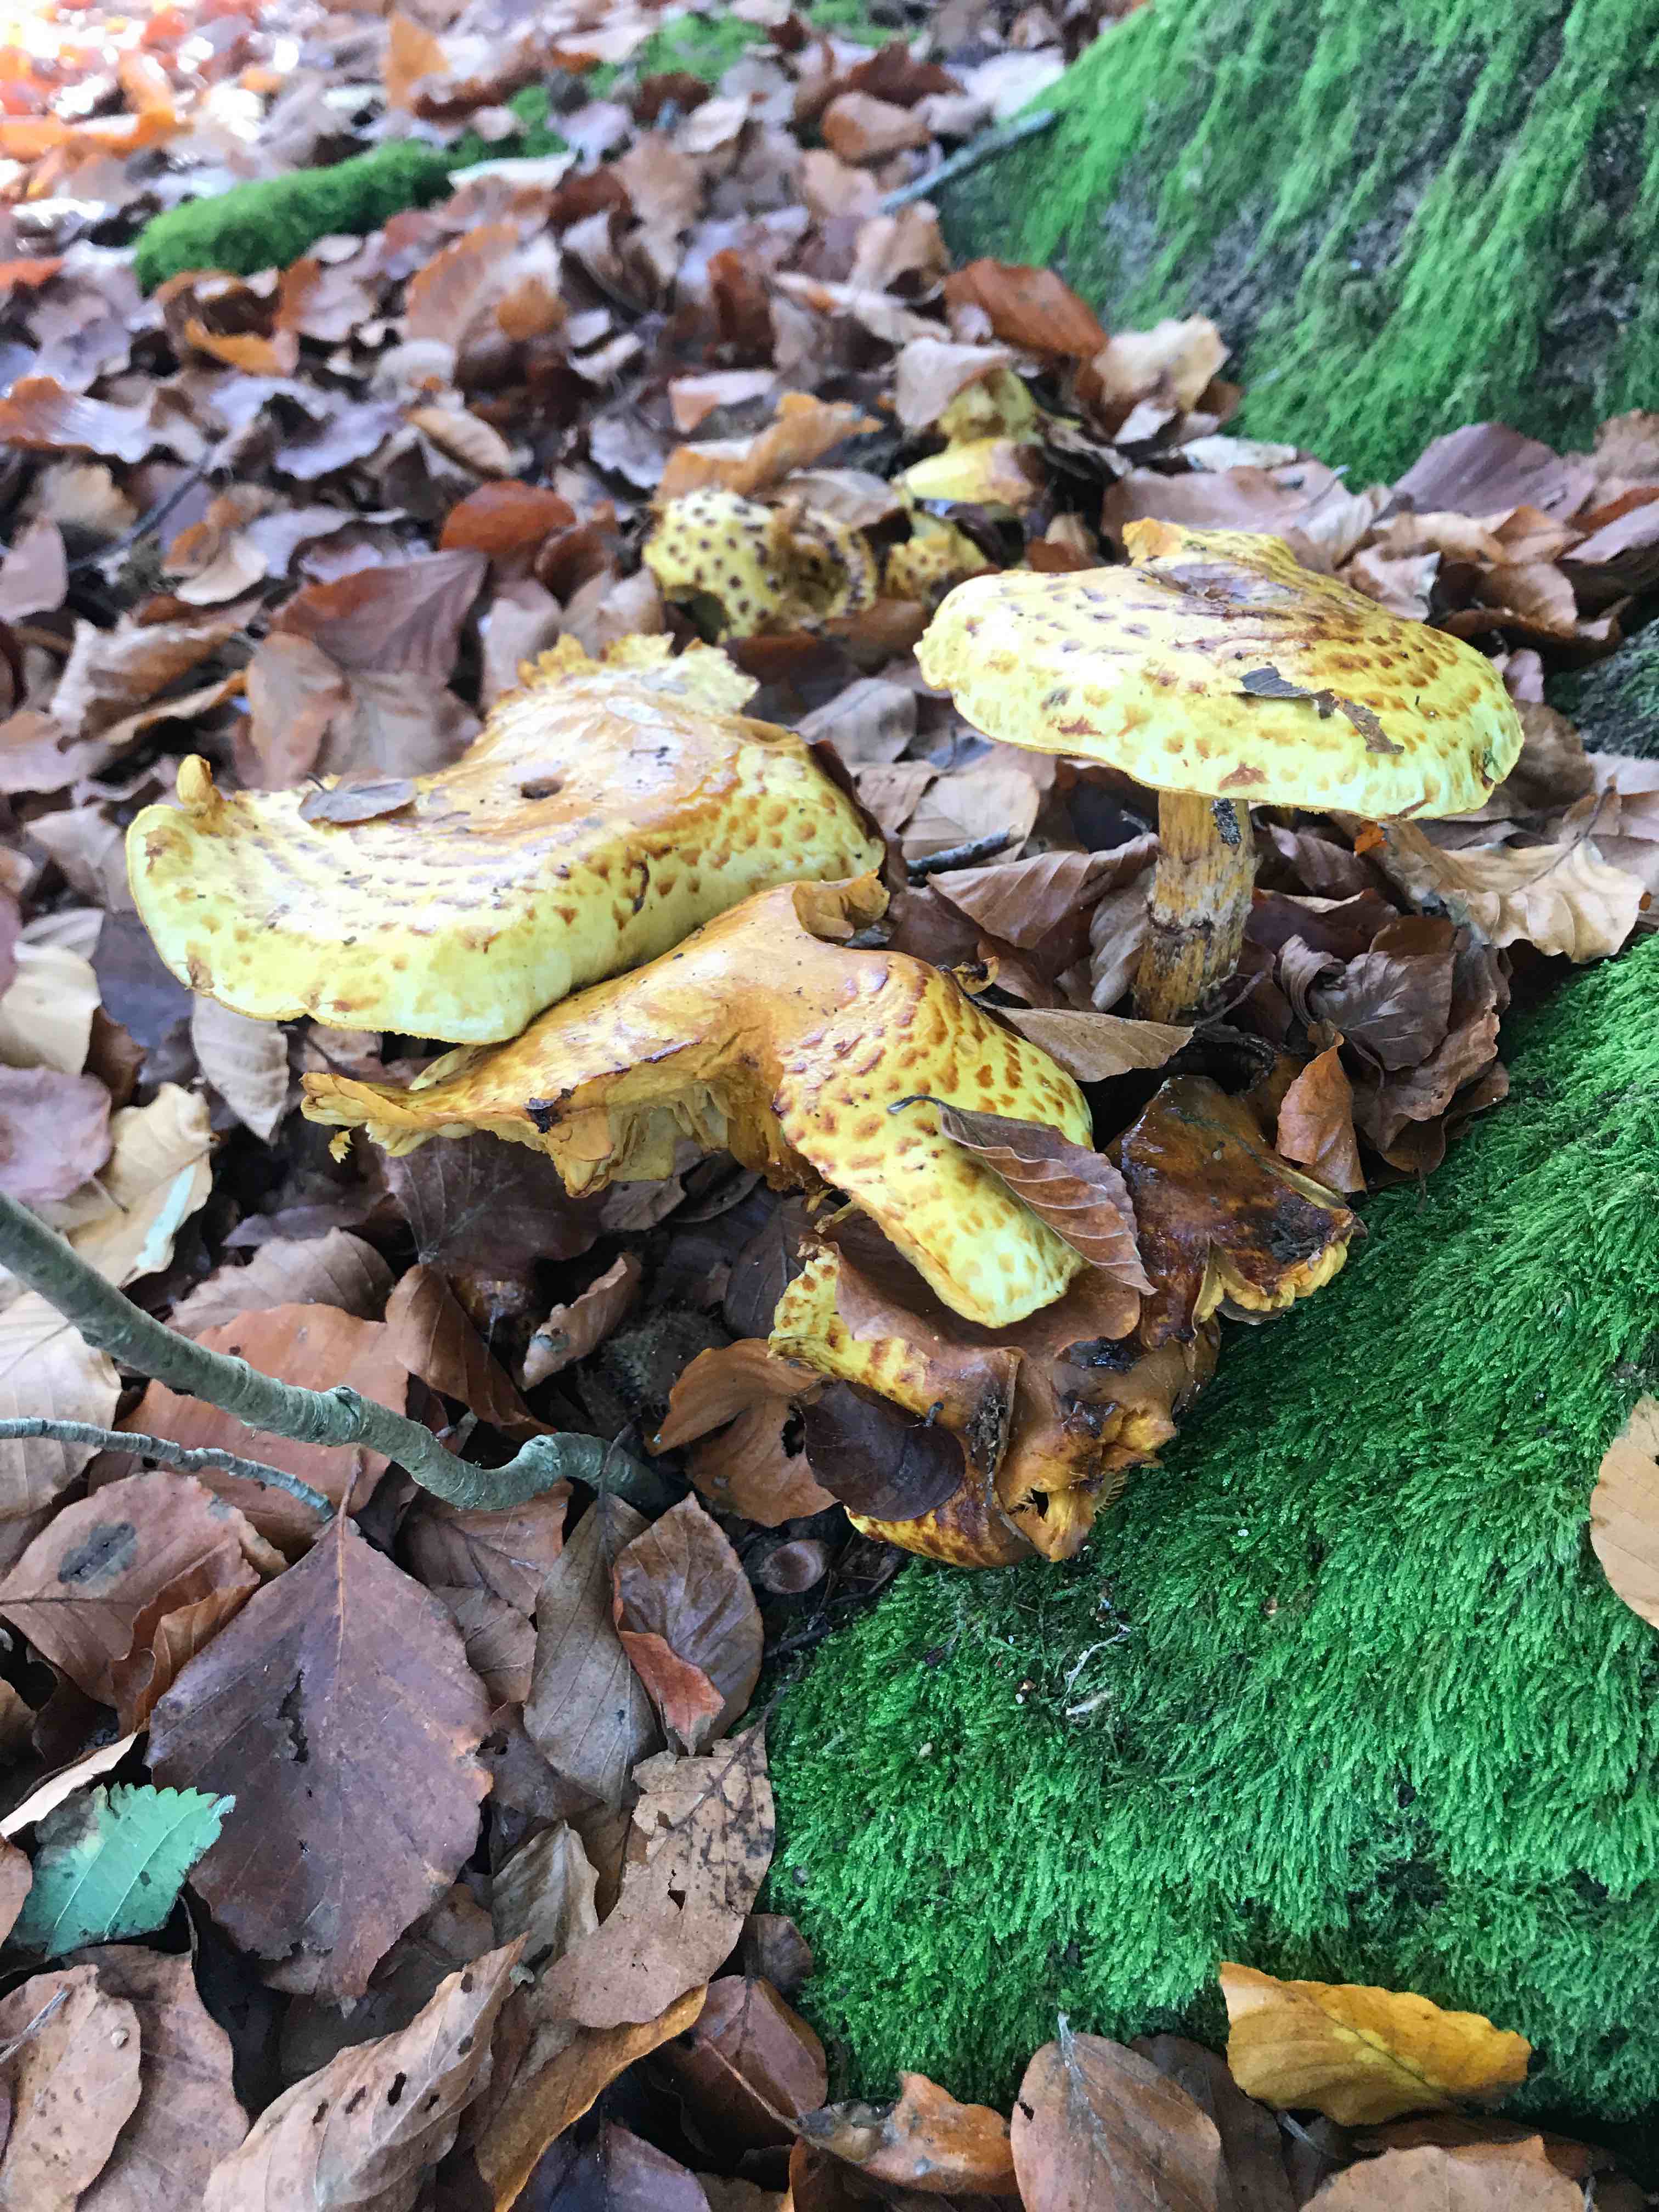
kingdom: Fungi
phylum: Basidiomycota
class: Agaricomycetes
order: Agaricales
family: Strophariaceae
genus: Pholiota
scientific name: Pholiota jahnii
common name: slimet skælhat
